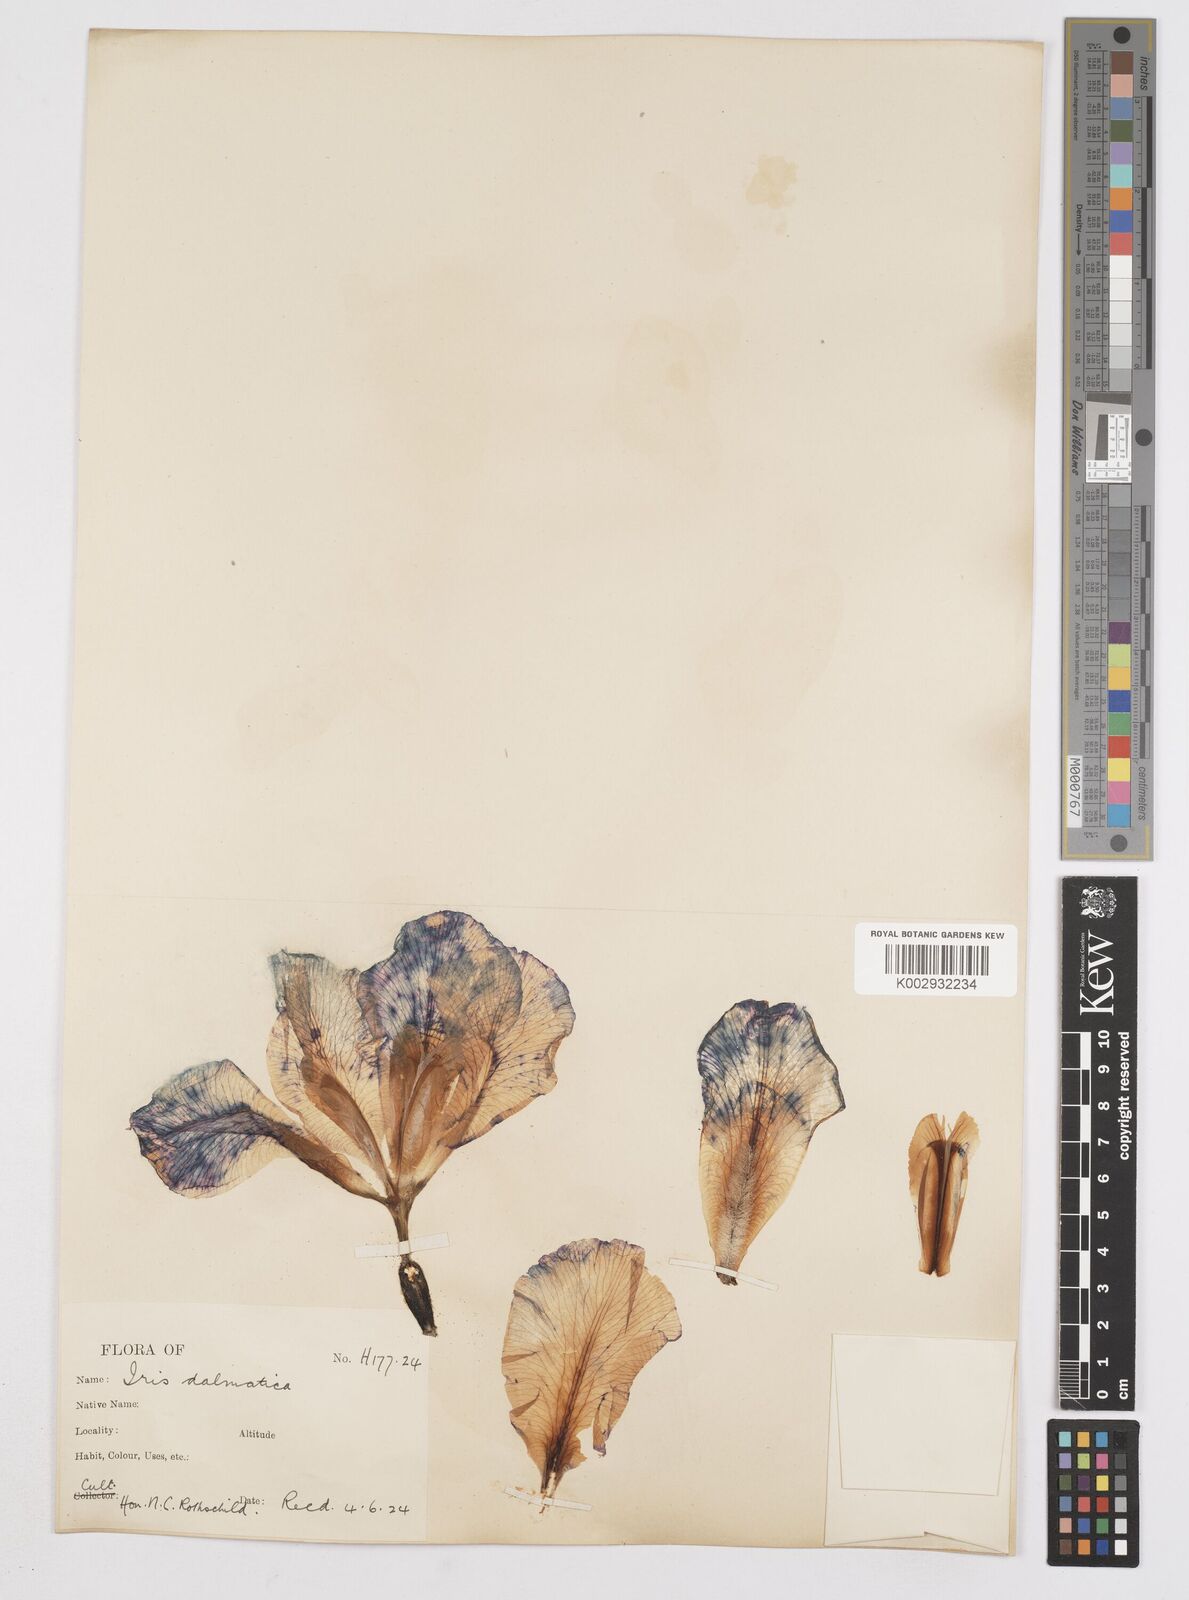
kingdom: Plantae
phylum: Tracheophyta
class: Liliopsida
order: Asparagales
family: Iridaceae
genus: Iris
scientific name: Iris pallida
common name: Sweet iris
